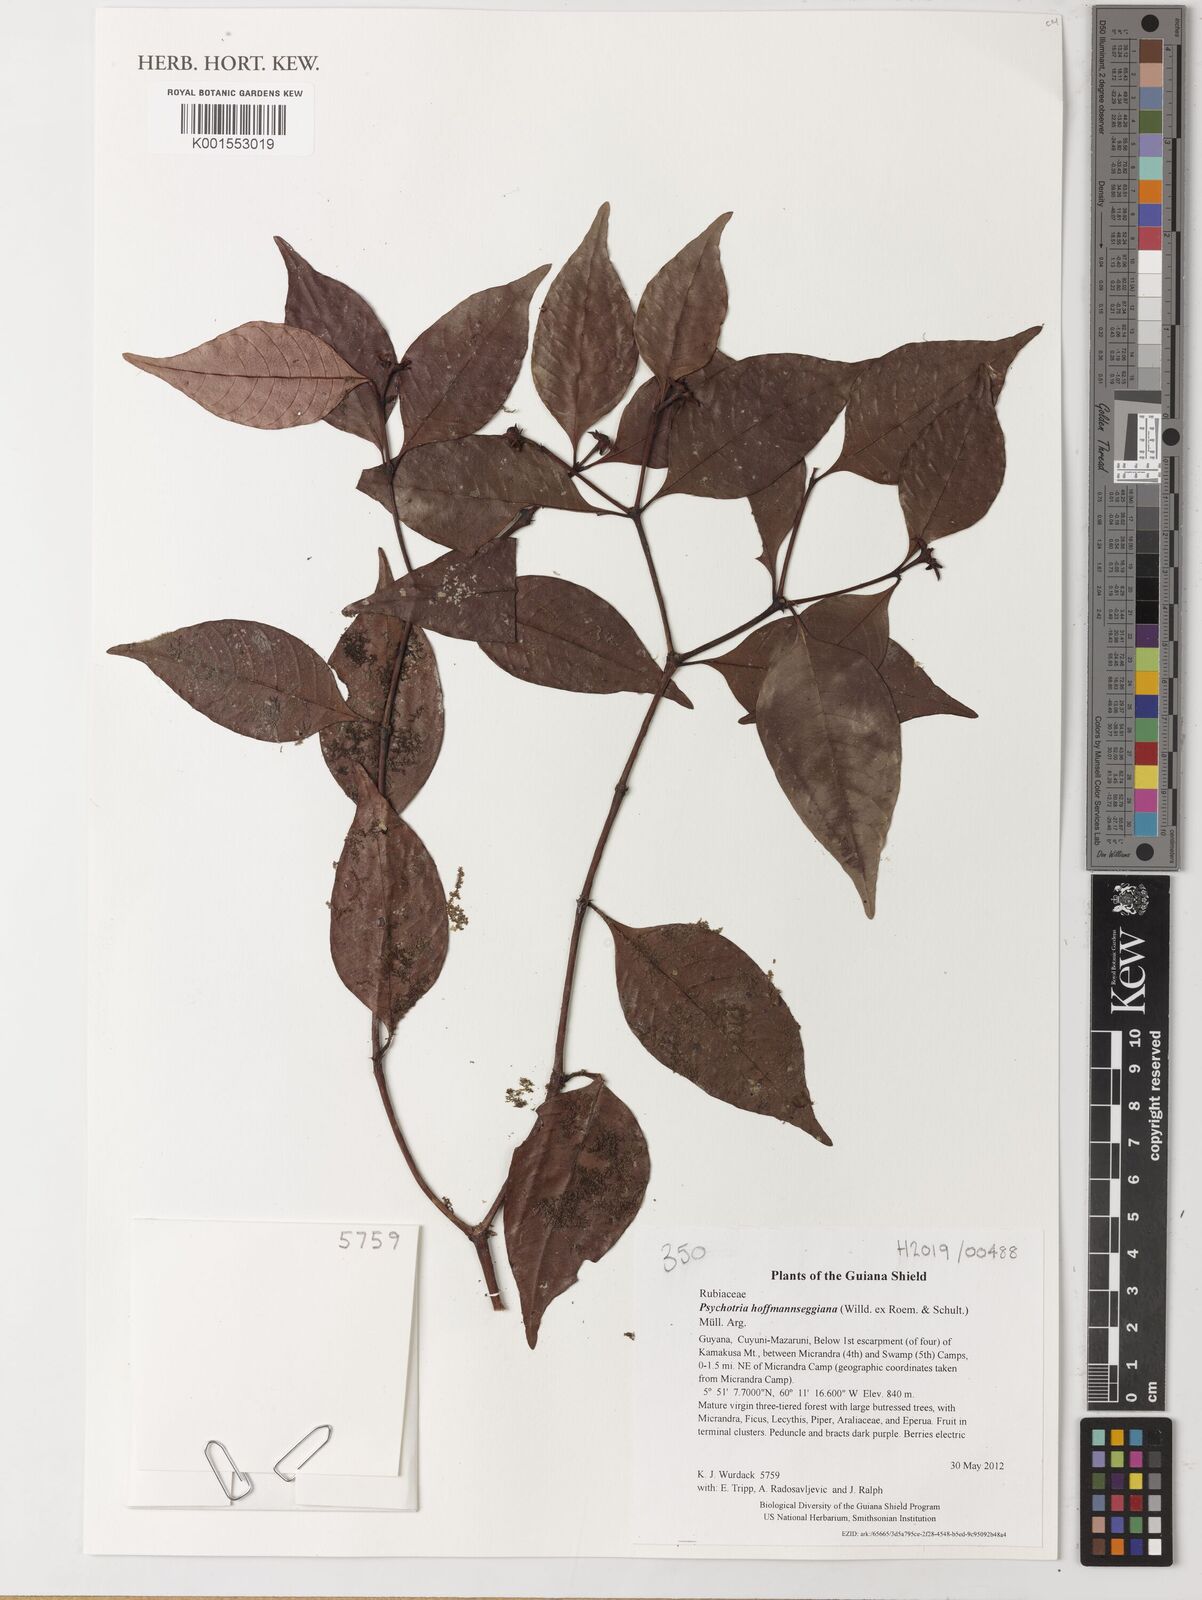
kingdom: Plantae
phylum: Tracheophyta
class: Magnoliopsida
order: Gentianales
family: Rubiaceae
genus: Palicourea
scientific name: Palicourea hoffmannseggiana
